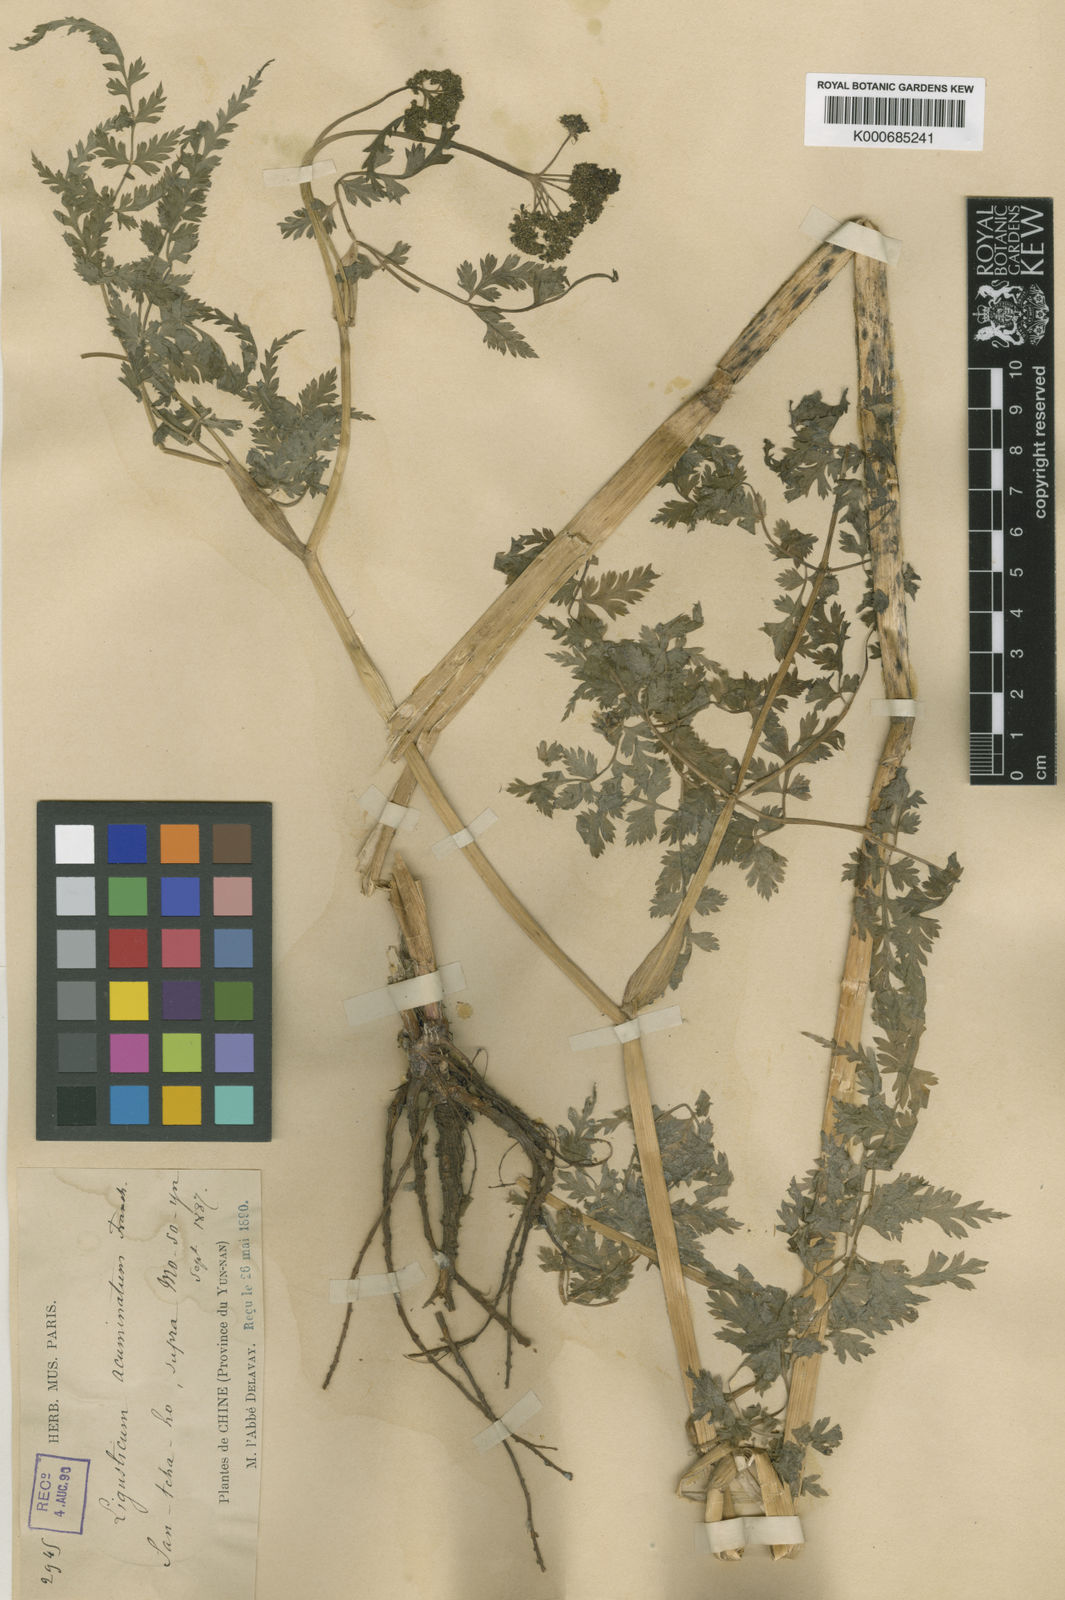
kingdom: Plantae
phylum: Tracheophyta
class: Magnoliopsida
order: Apiales
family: Apiaceae
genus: Conioselinum
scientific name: Conioselinum acuminatum
